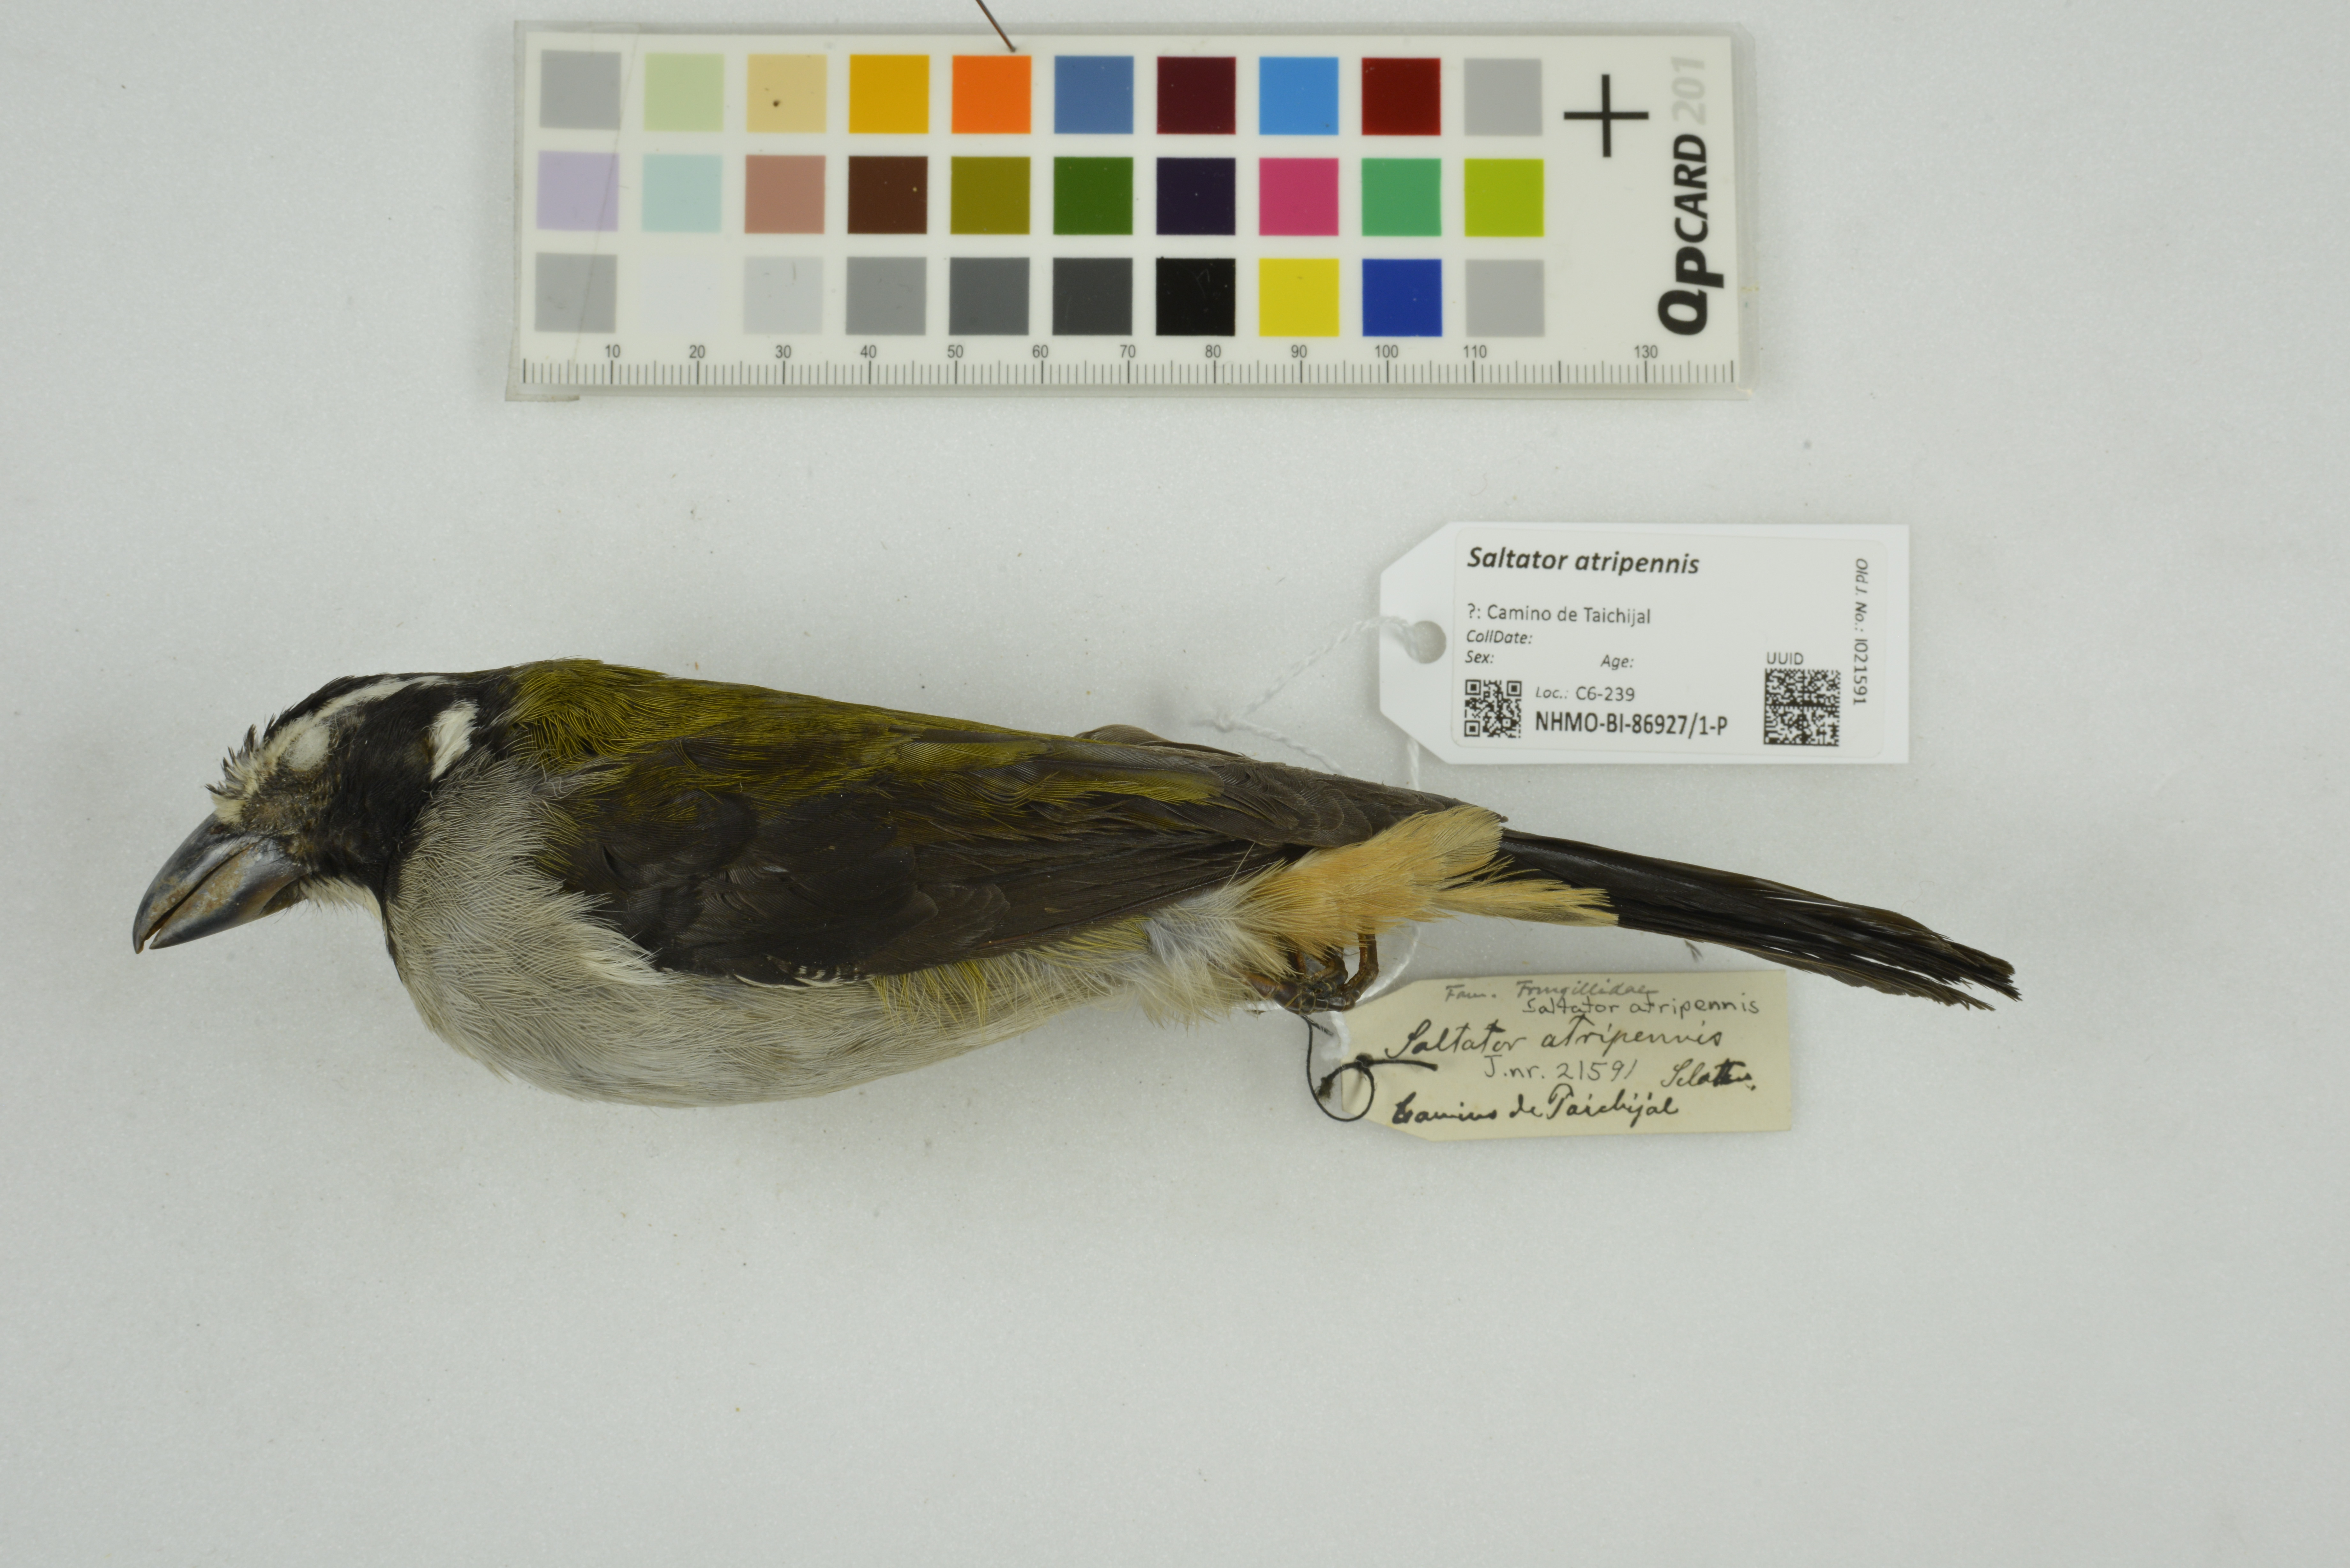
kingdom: Animalia
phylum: Chordata
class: Aves
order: Passeriformes
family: Thraupidae
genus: Saltator
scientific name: Saltator atripennis
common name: Black-winged saltator
